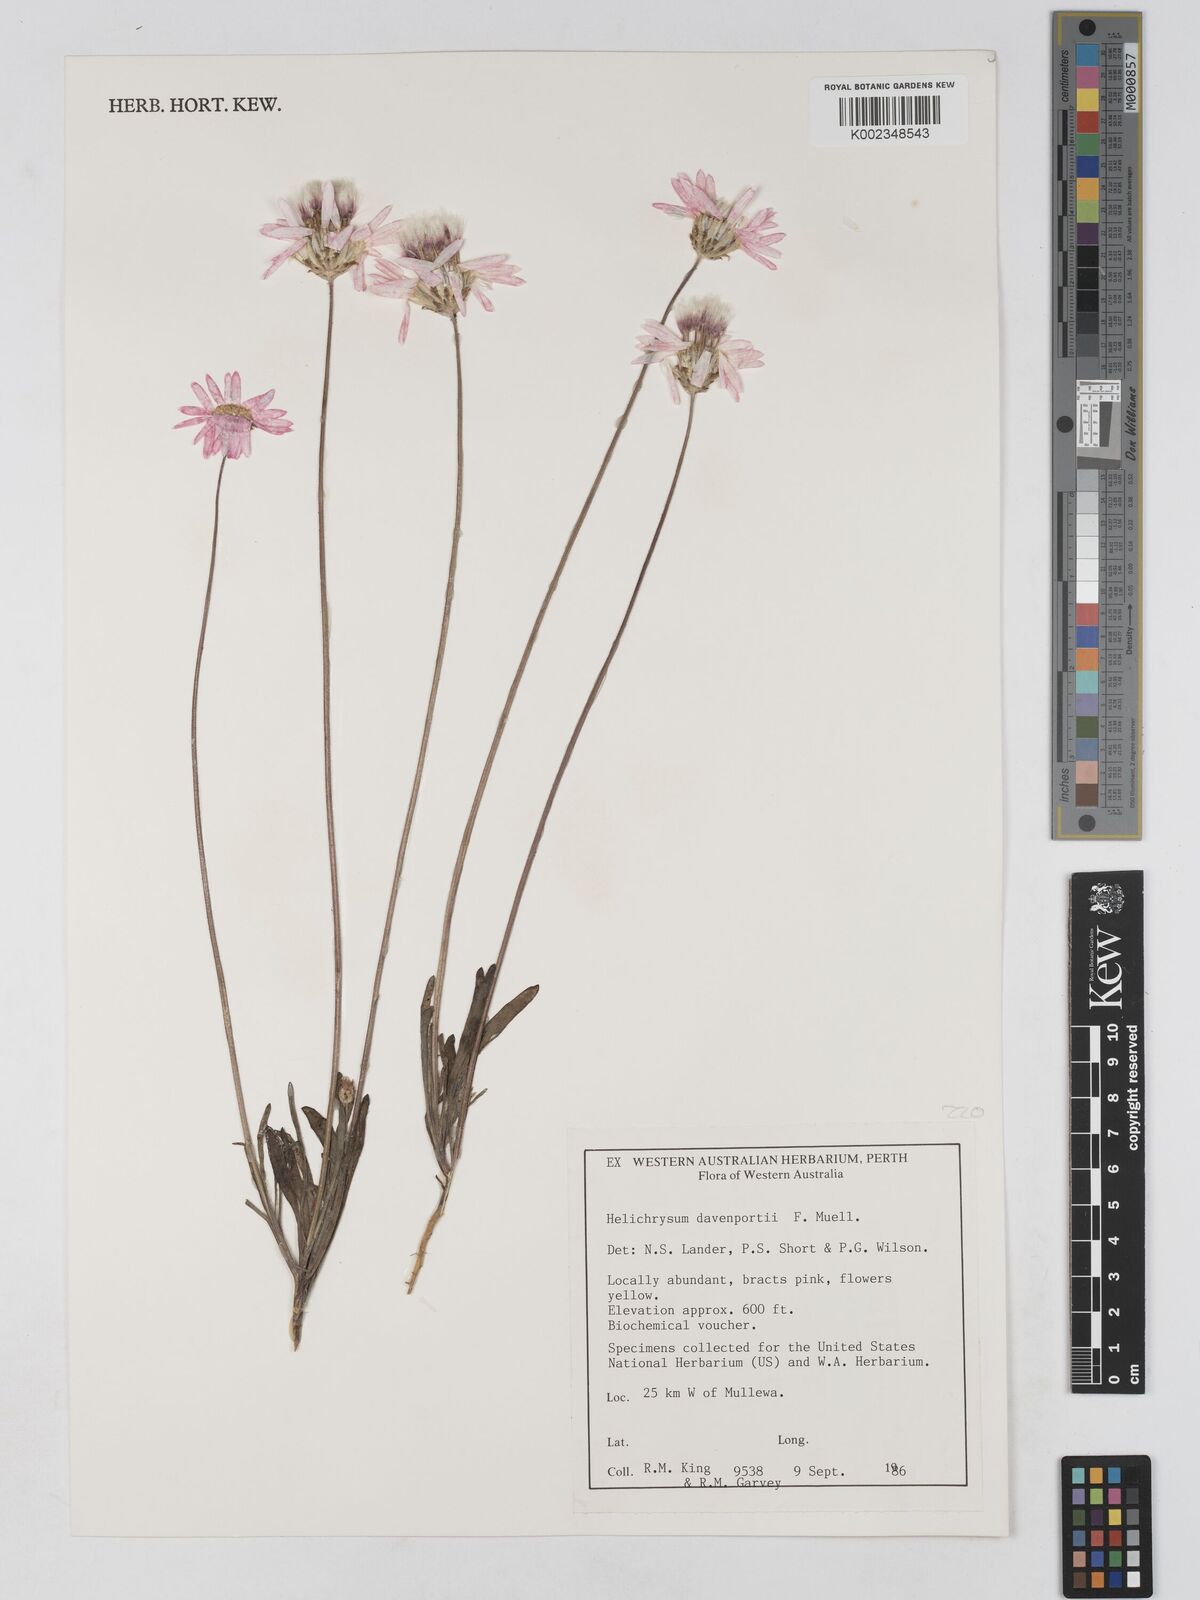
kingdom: Plantae
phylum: Tracheophyta
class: Magnoliopsida
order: Asterales
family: Asteraceae
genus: Lawrencella
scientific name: Lawrencella davenportii
